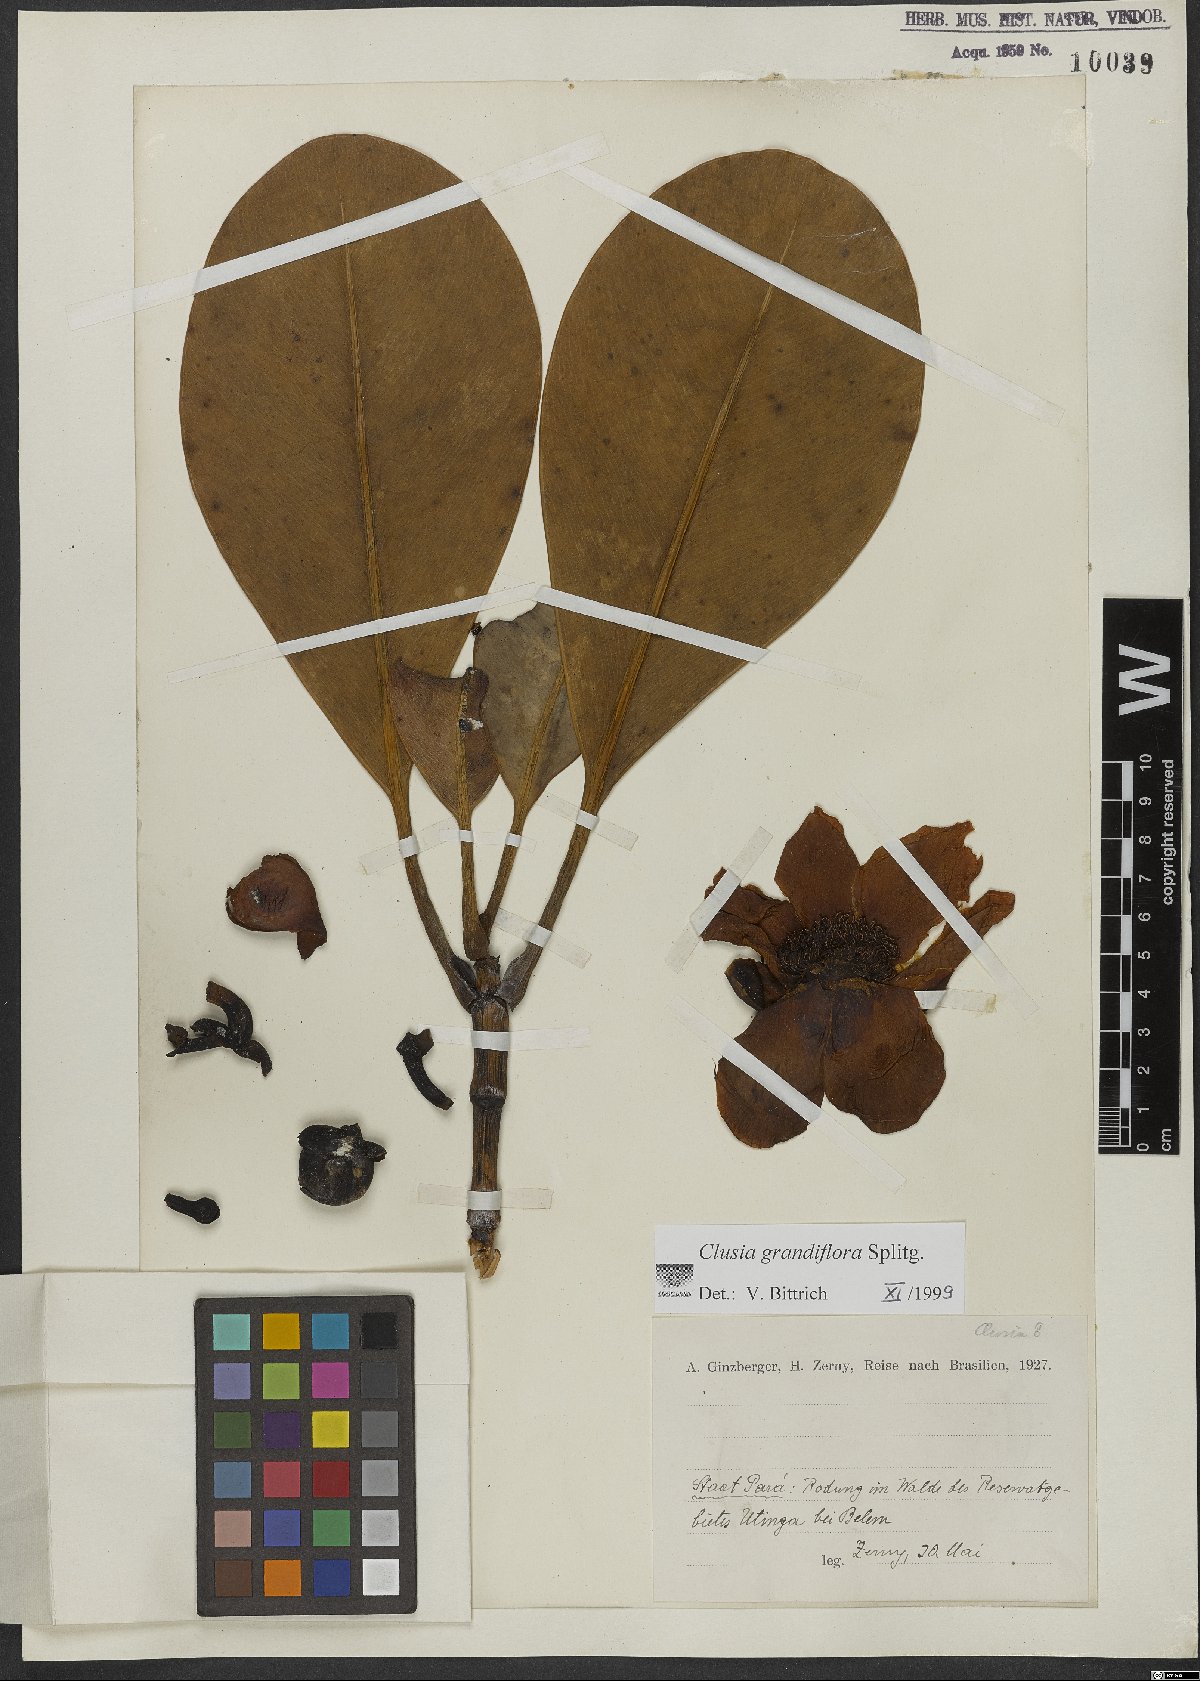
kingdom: Plantae
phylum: Tracheophyta
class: Magnoliopsida
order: Malpighiales
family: Clusiaceae
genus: Clusia
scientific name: Clusia grandiflora
